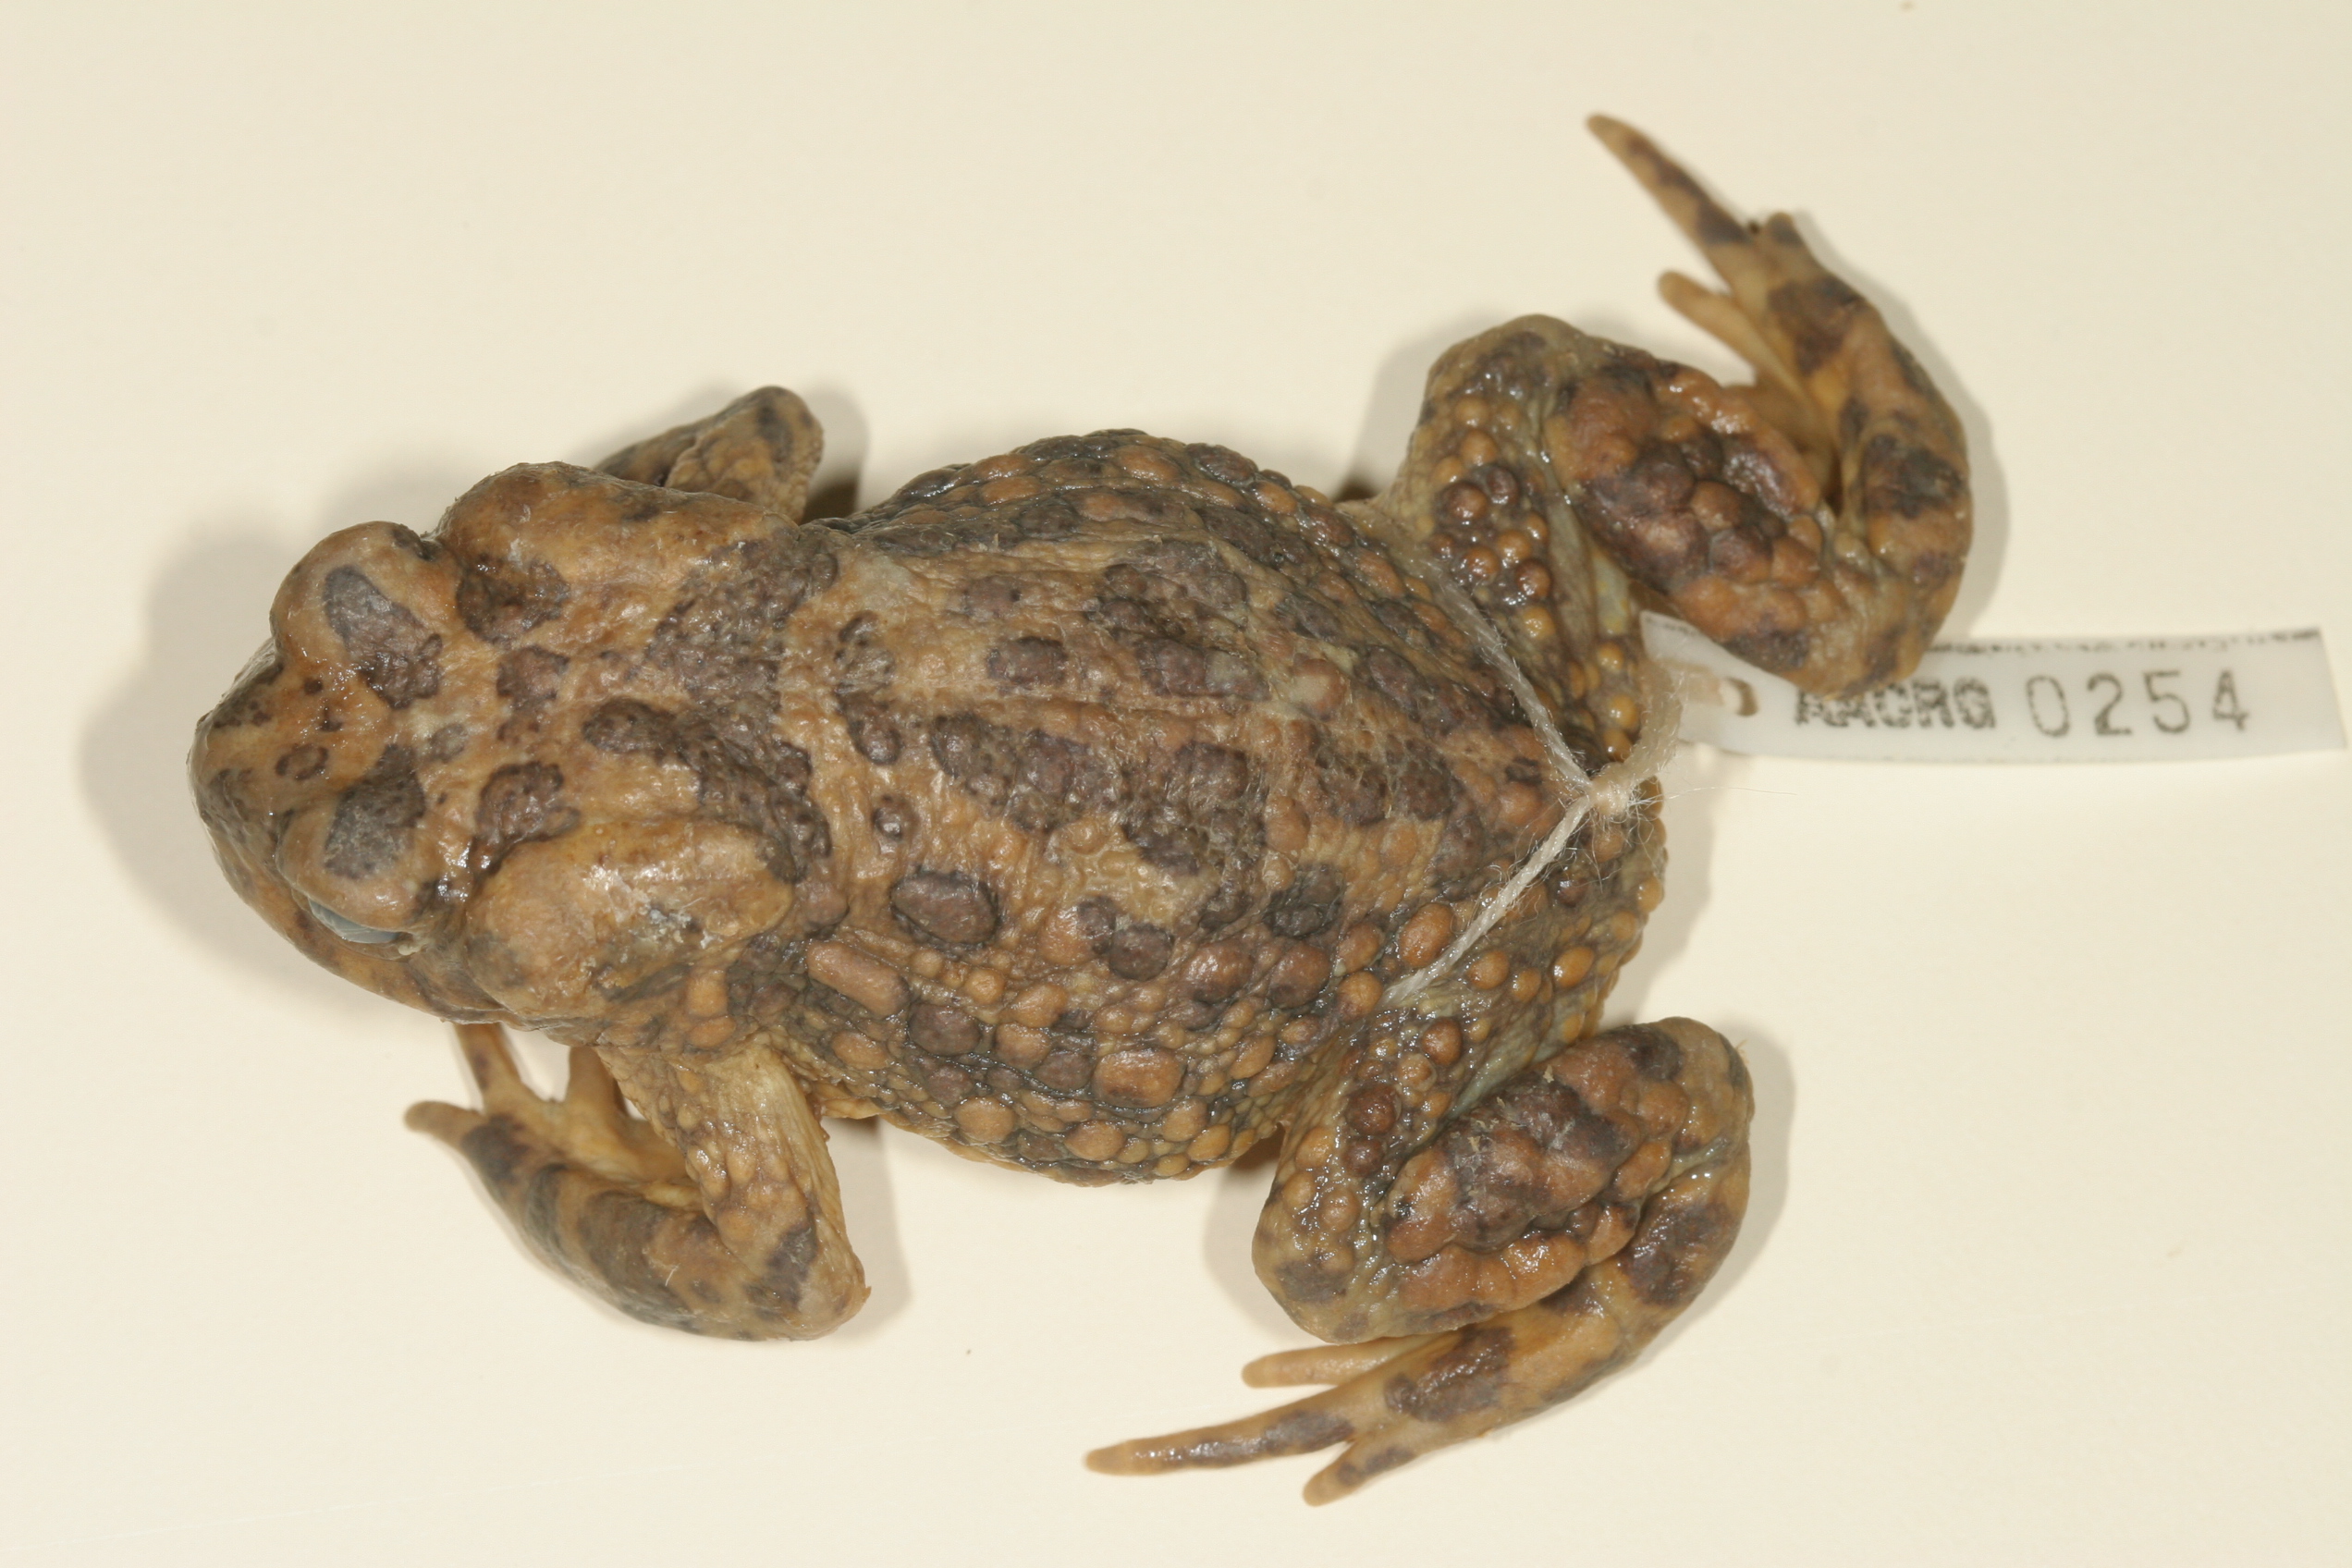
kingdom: Animalia
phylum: Chordata
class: Amphibia
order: Anura
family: Bufonidae
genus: Vandijkophrynus
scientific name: Vandijkophrynus gariepensis
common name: Gariep toad
